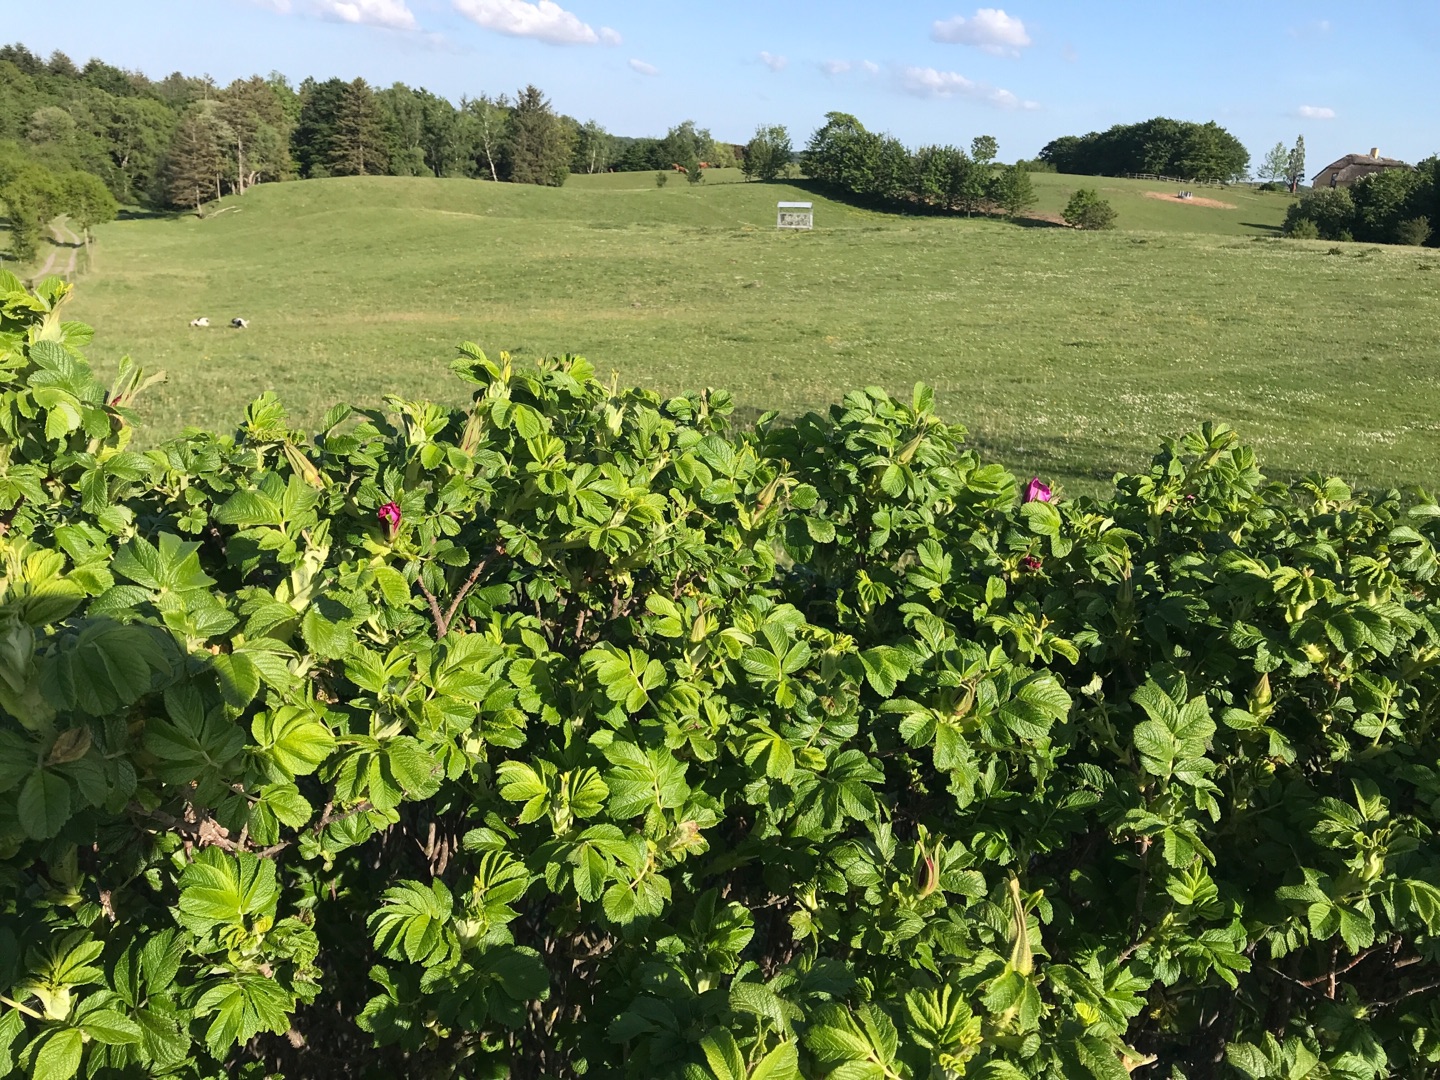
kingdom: Plantae
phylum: Tracheophyta
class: Magnoliopsida
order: Rosales
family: Rosaceae
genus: Rosa
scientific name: Rosa rugosa
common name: Rynket rose
